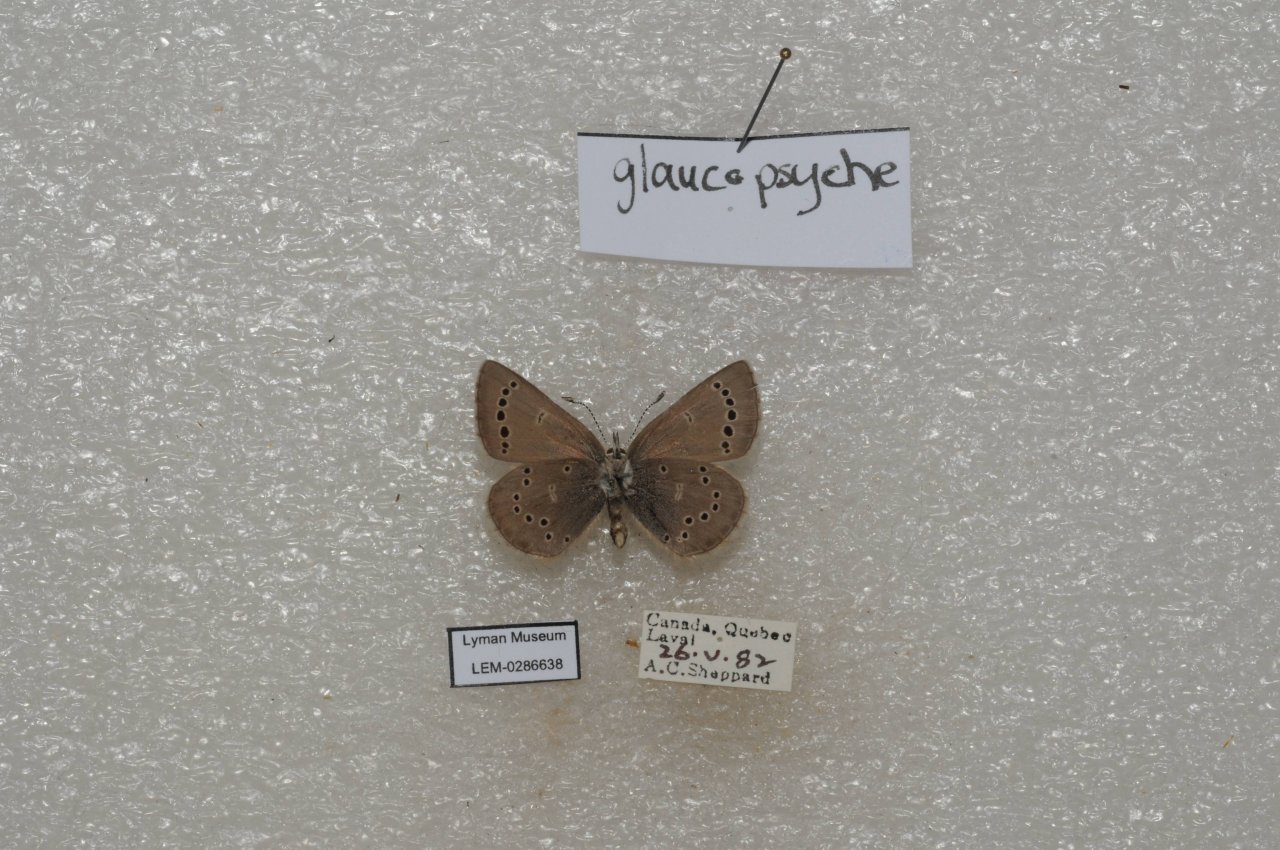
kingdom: Animalia
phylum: Arthropoda
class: Insecta
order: Lepidoptera
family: Lycaenidae
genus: Glaucopsyche
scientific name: Glaucopsyche lygdamus
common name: Silvery Blue
